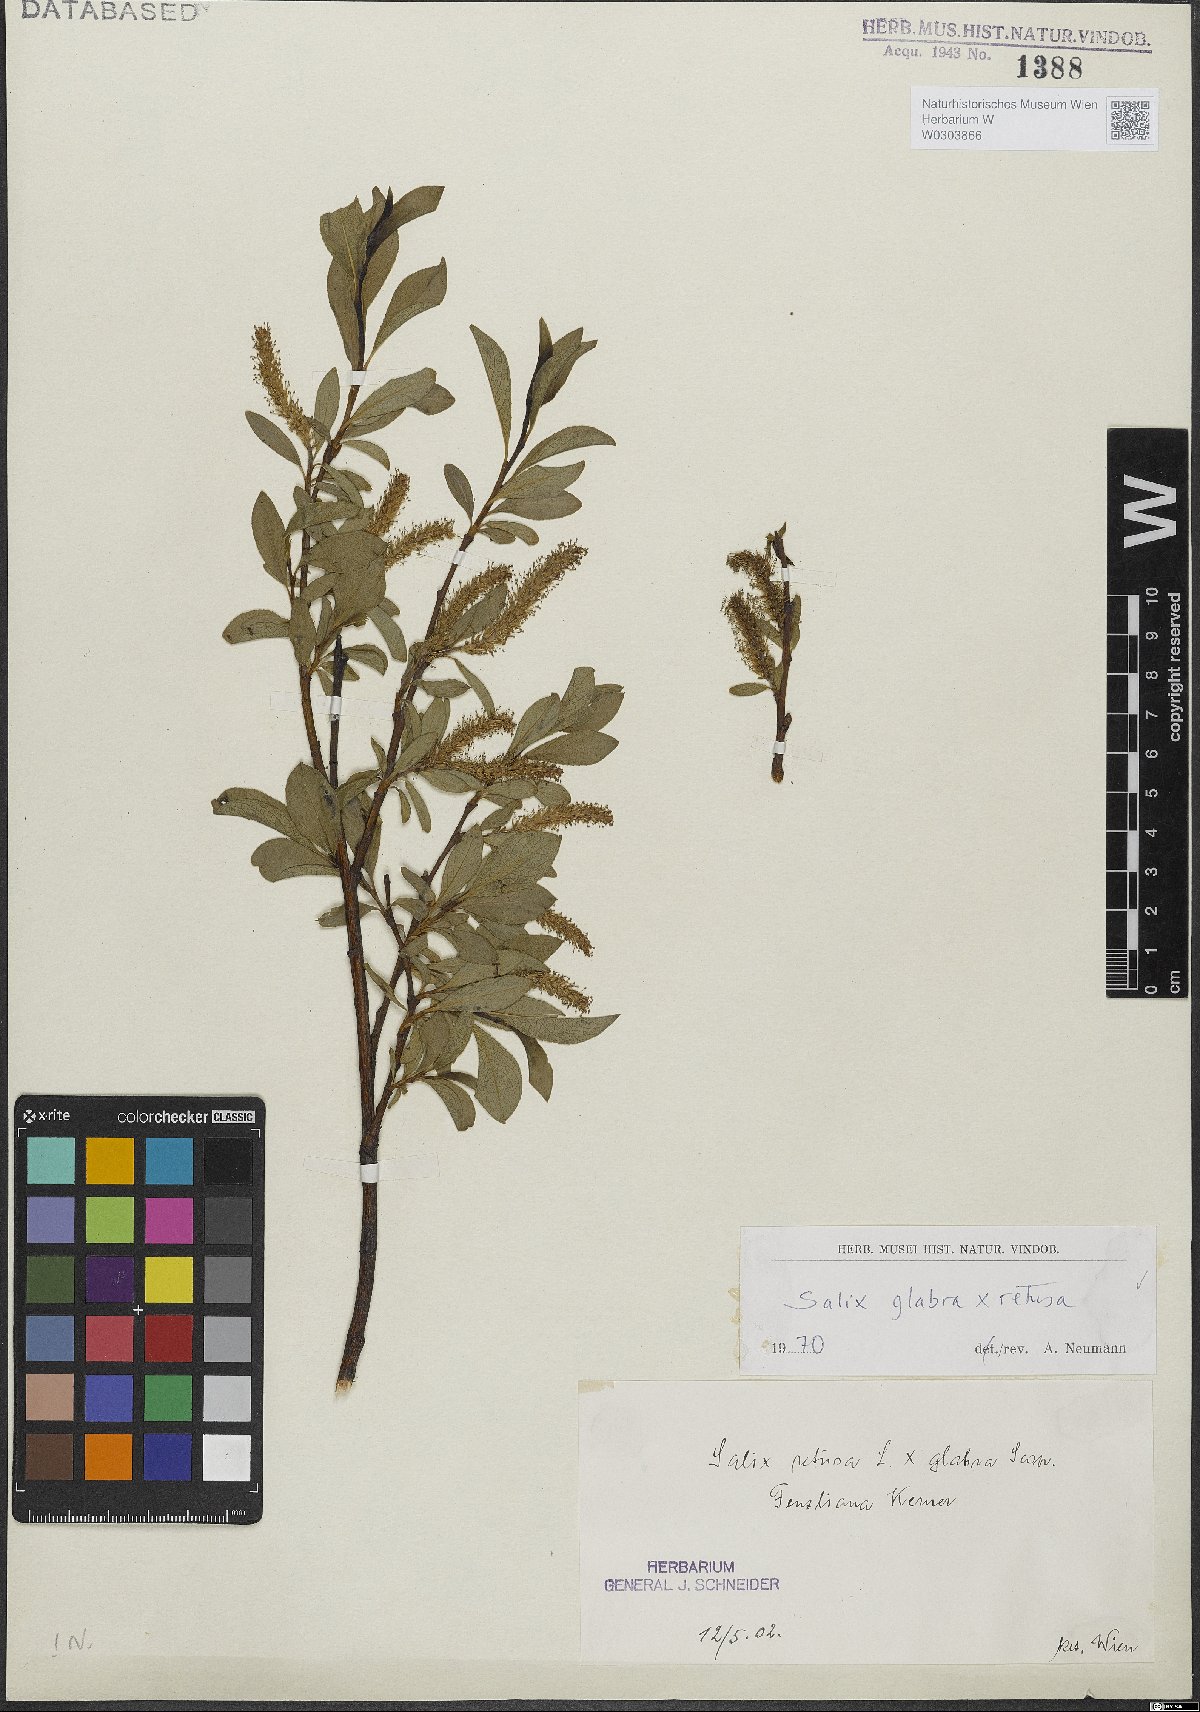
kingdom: Plantae
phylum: Tracheophyta
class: Magnoliopsida
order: Malpighiales
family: Salicaceae
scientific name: Salicaceae
